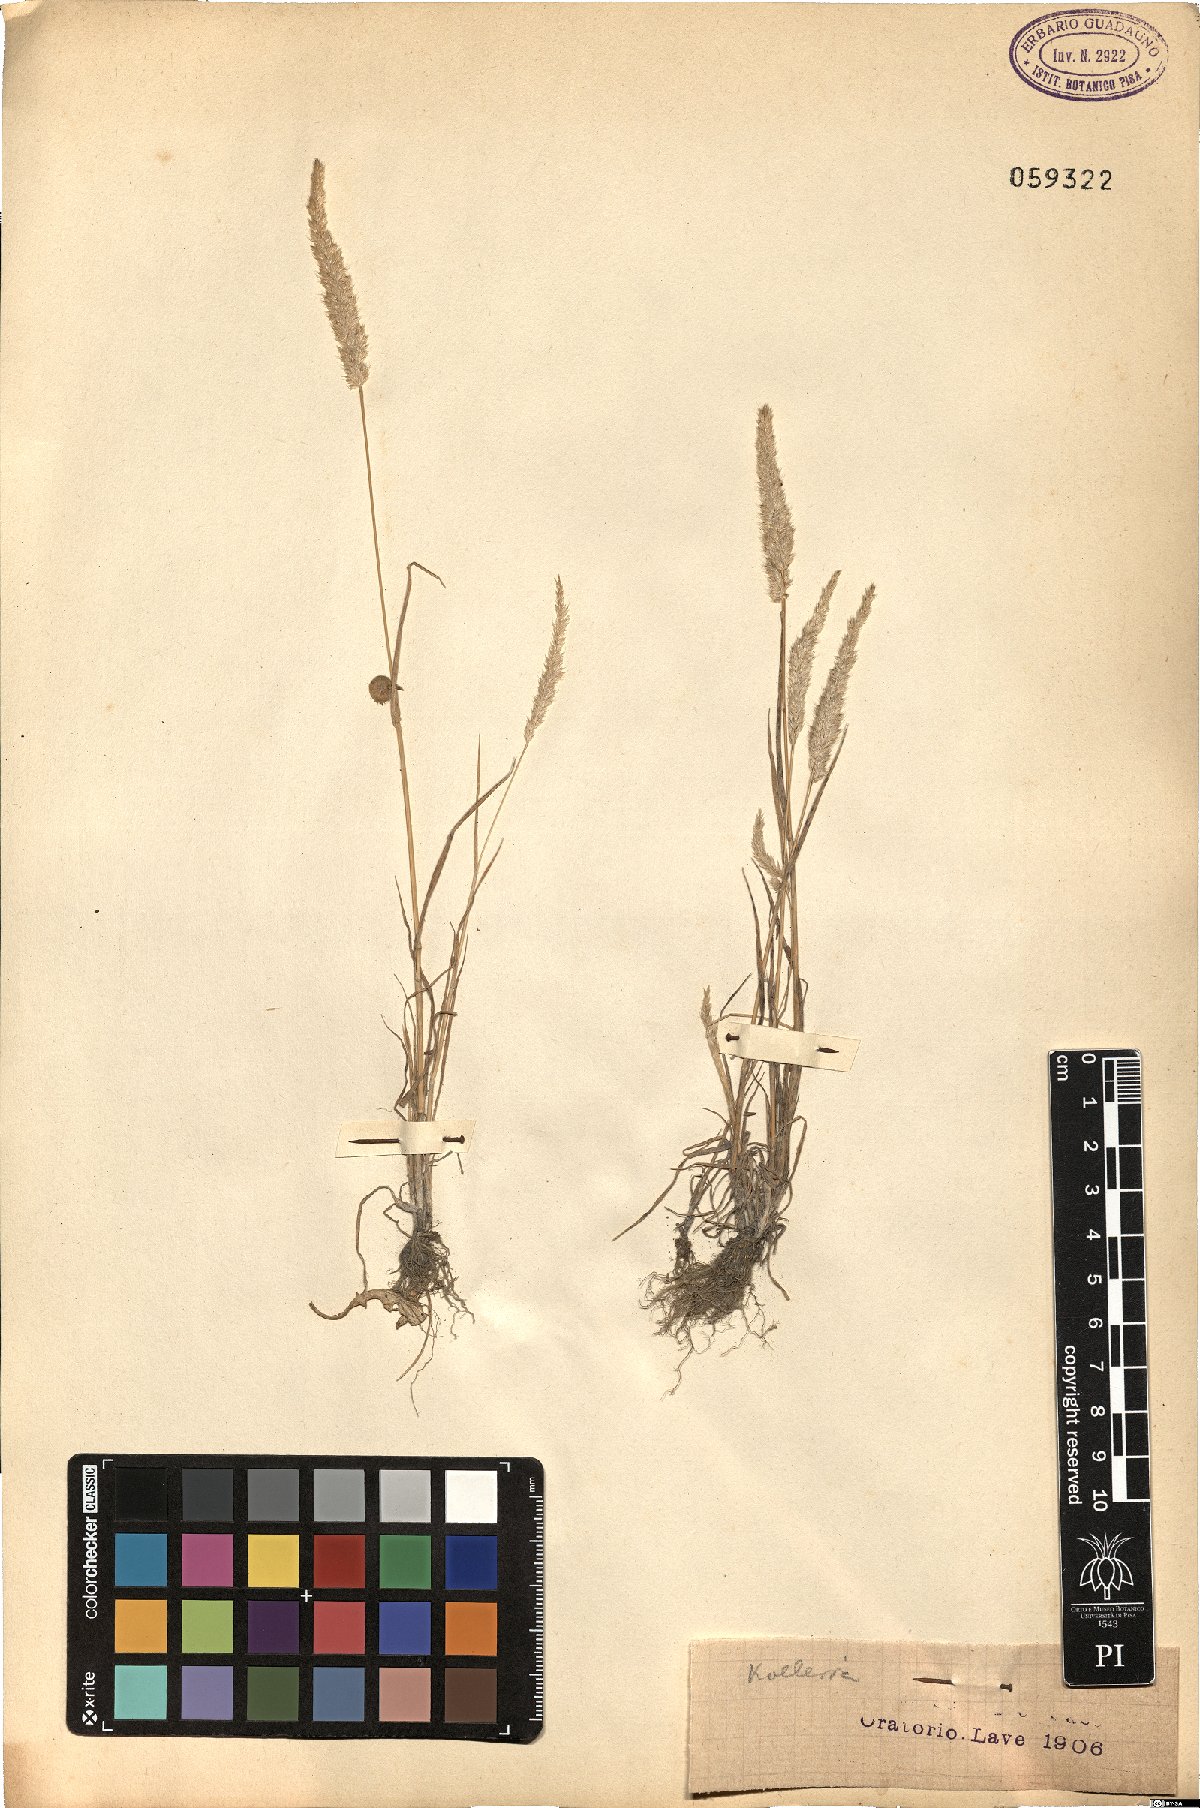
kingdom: Plantae
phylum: Tracheophyta
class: Liliopsida
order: Poales
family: Poaceae
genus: Koeleria
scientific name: Koeleria
